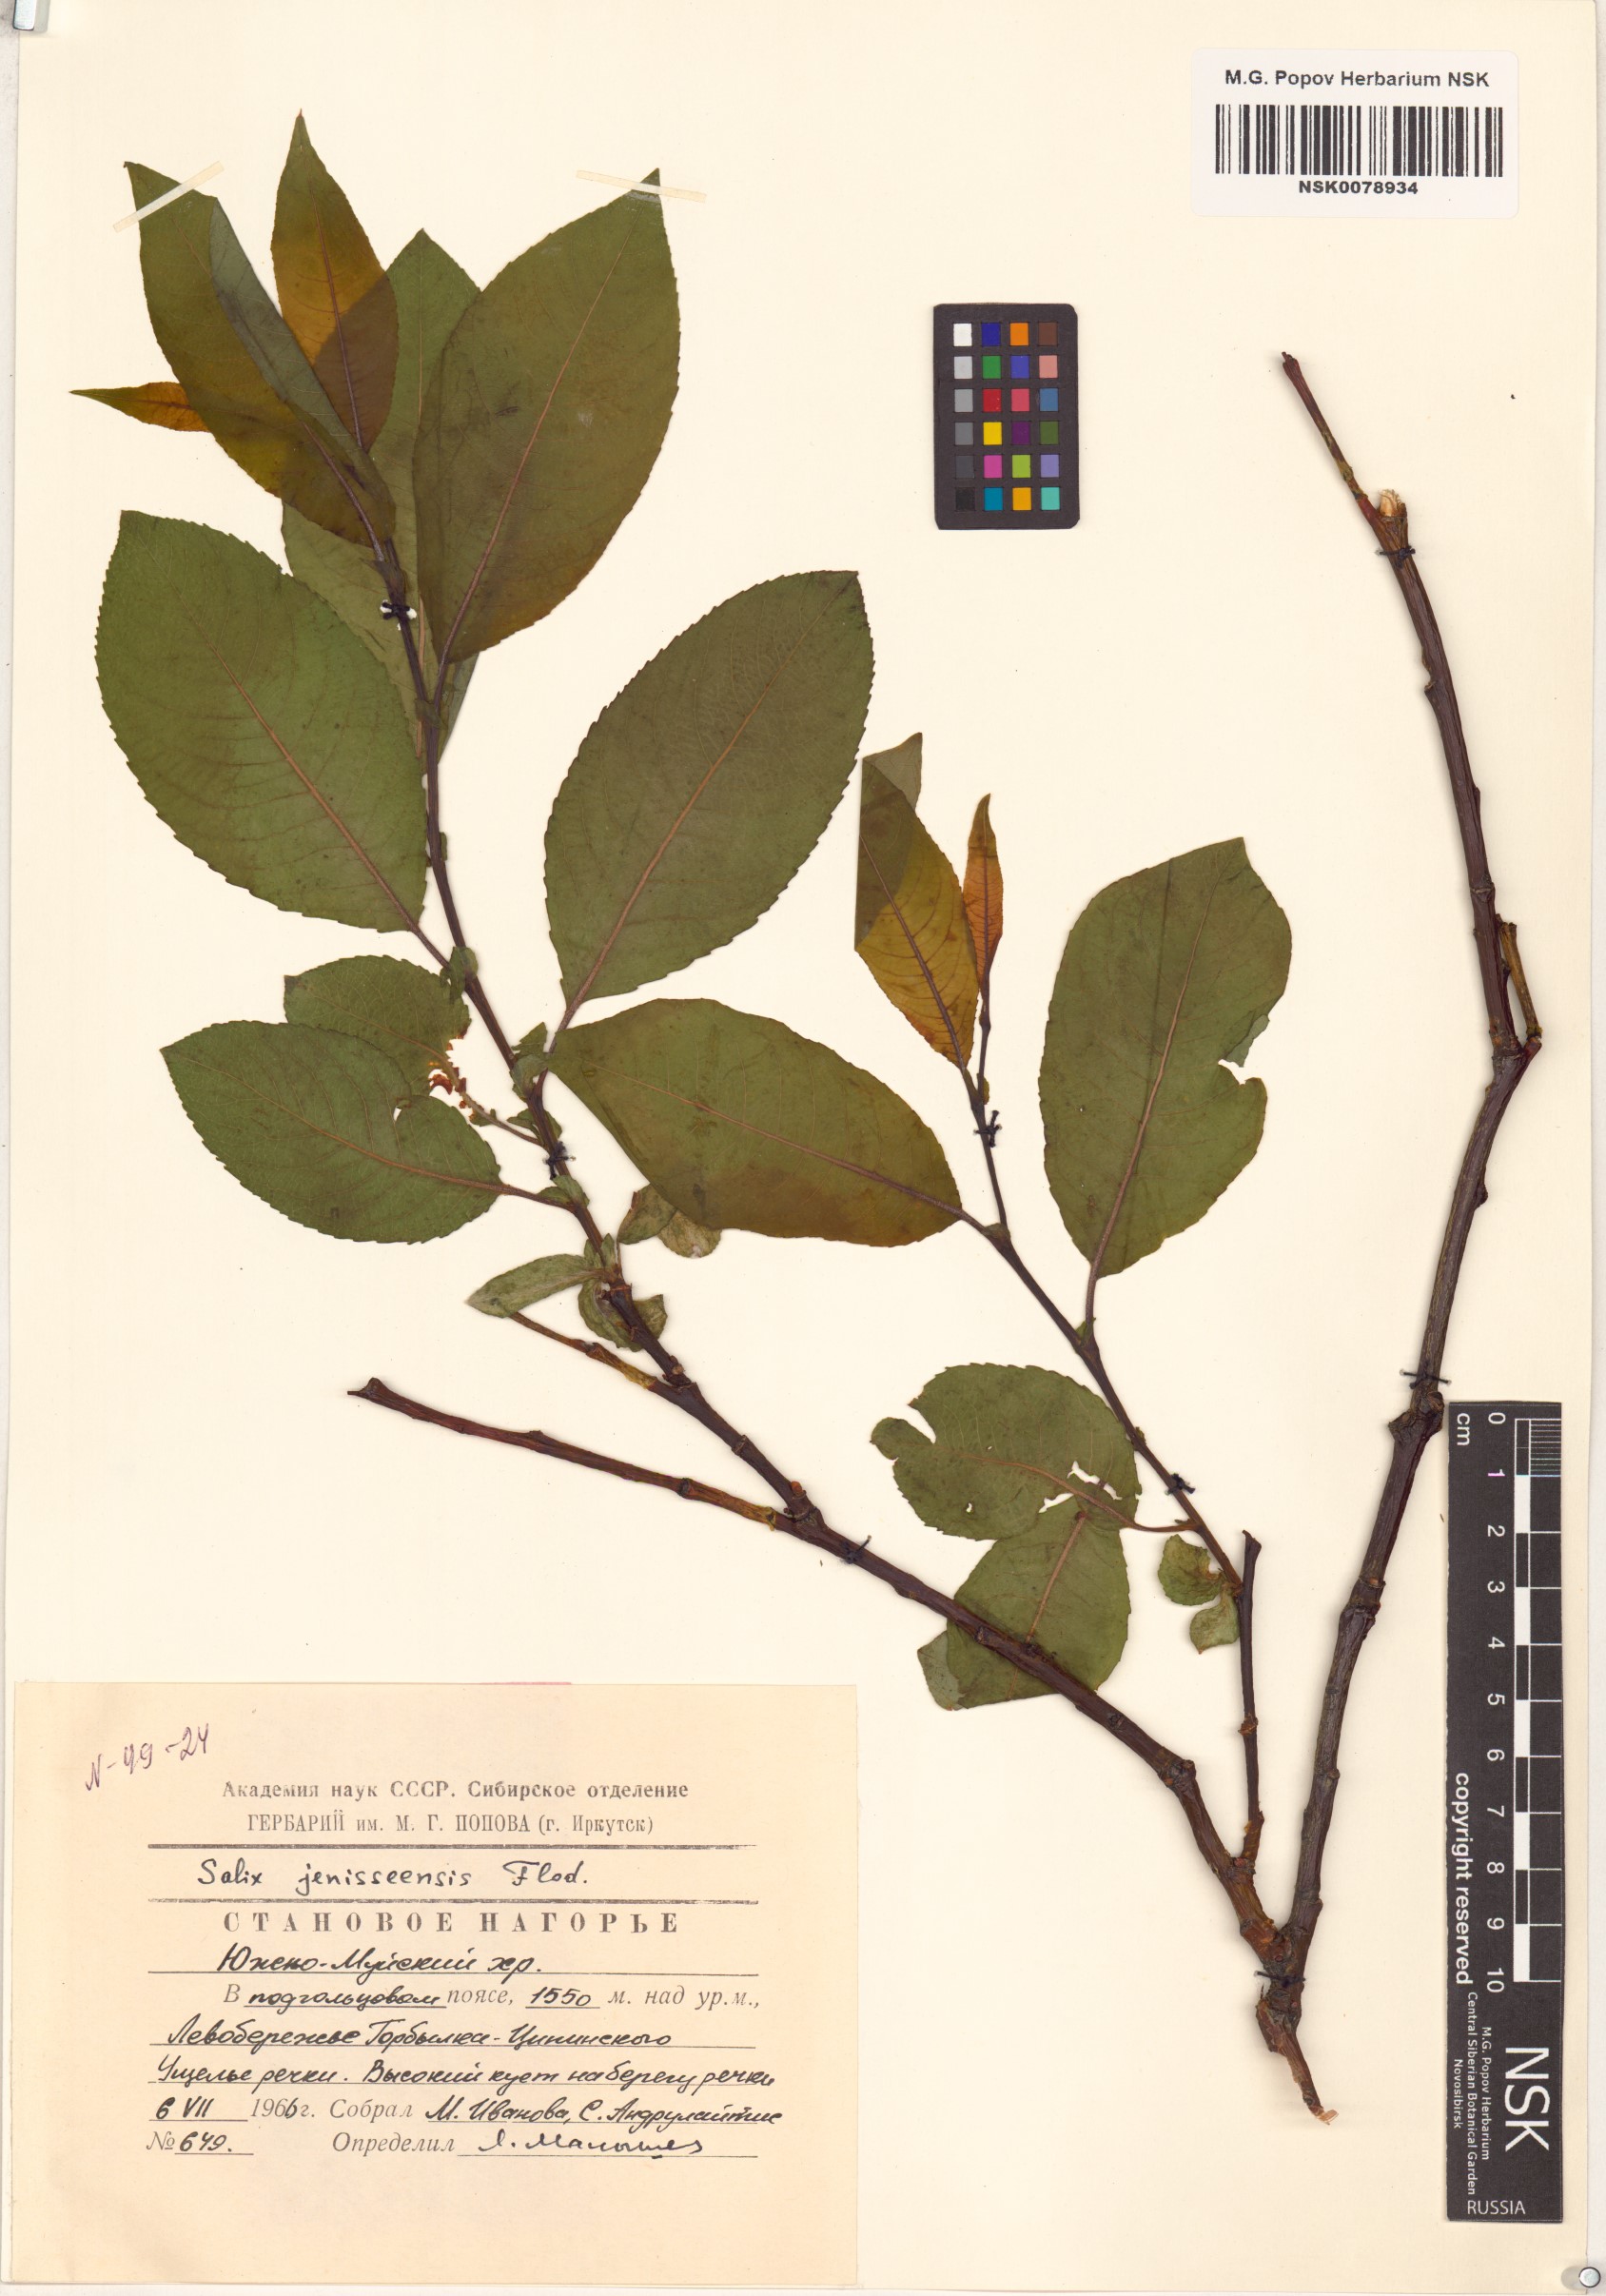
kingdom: Plantae
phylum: Tracheophyta
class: Magnoliopsida
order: Malpighiales
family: Salicaceae
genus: Salix
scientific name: Salix jenisseensis
